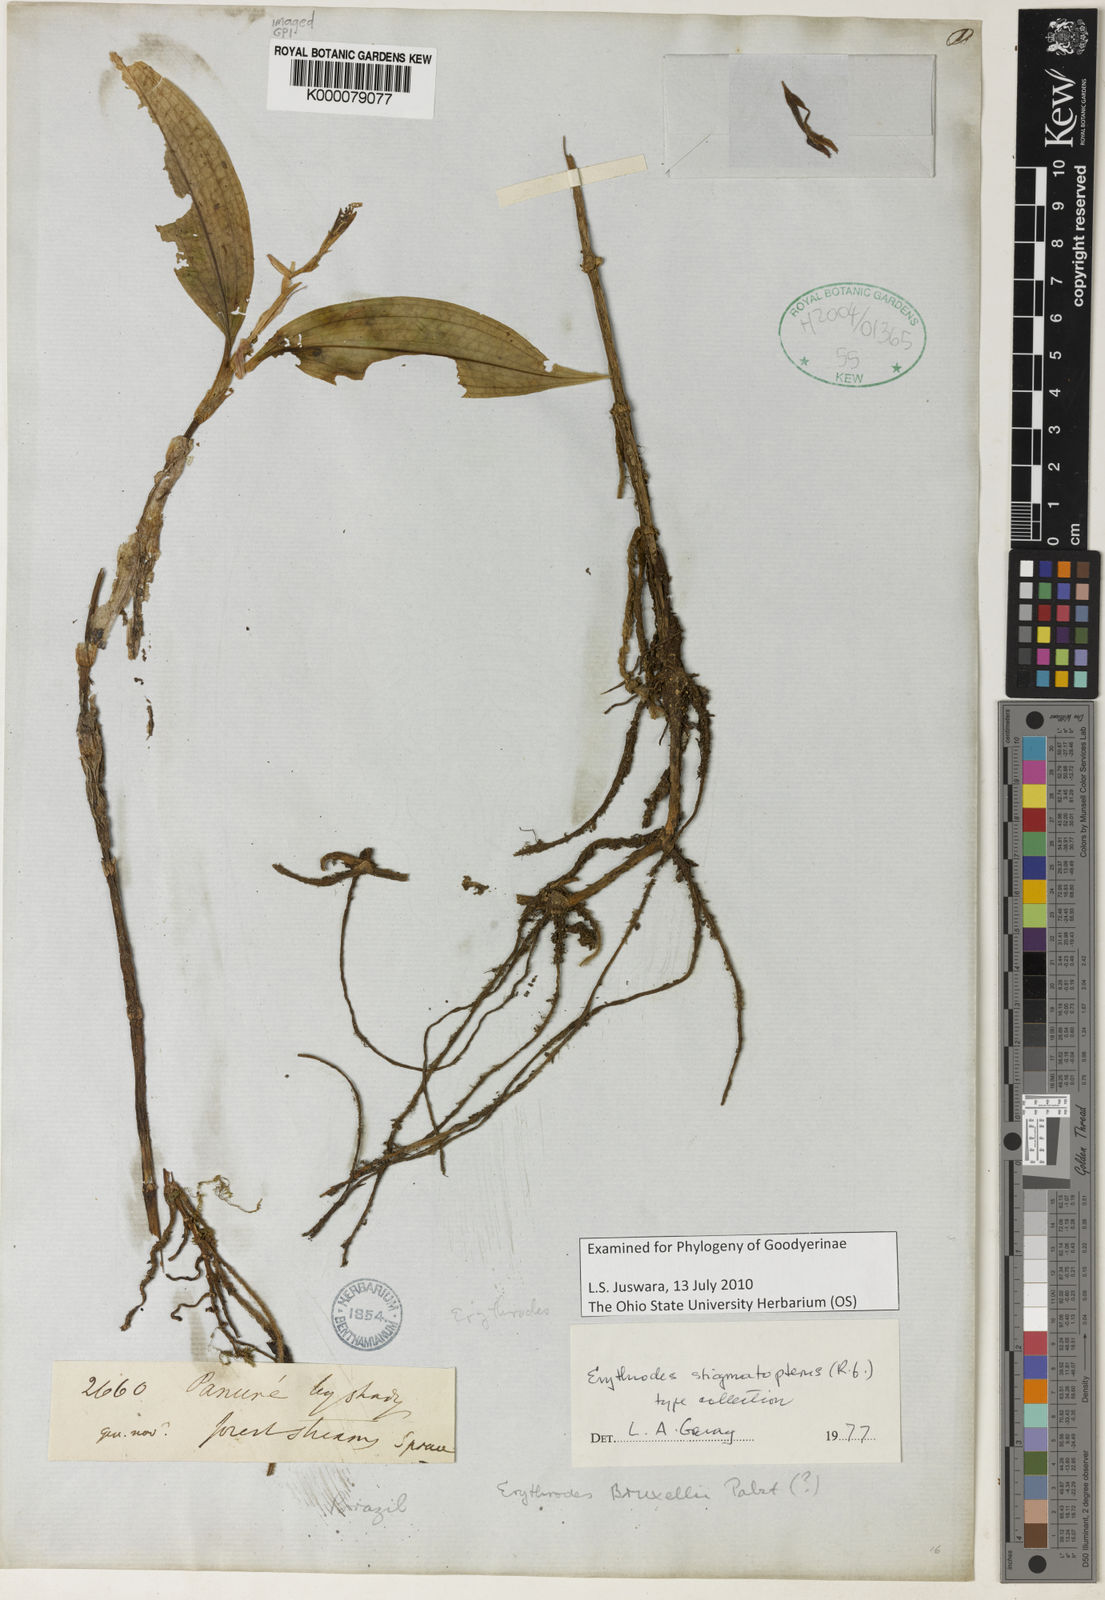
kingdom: Plantae
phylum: Tracheophyta
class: Liliopsida
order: Asparagales
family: Orchidaceae
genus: Erythrodes
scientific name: Erythrodes
